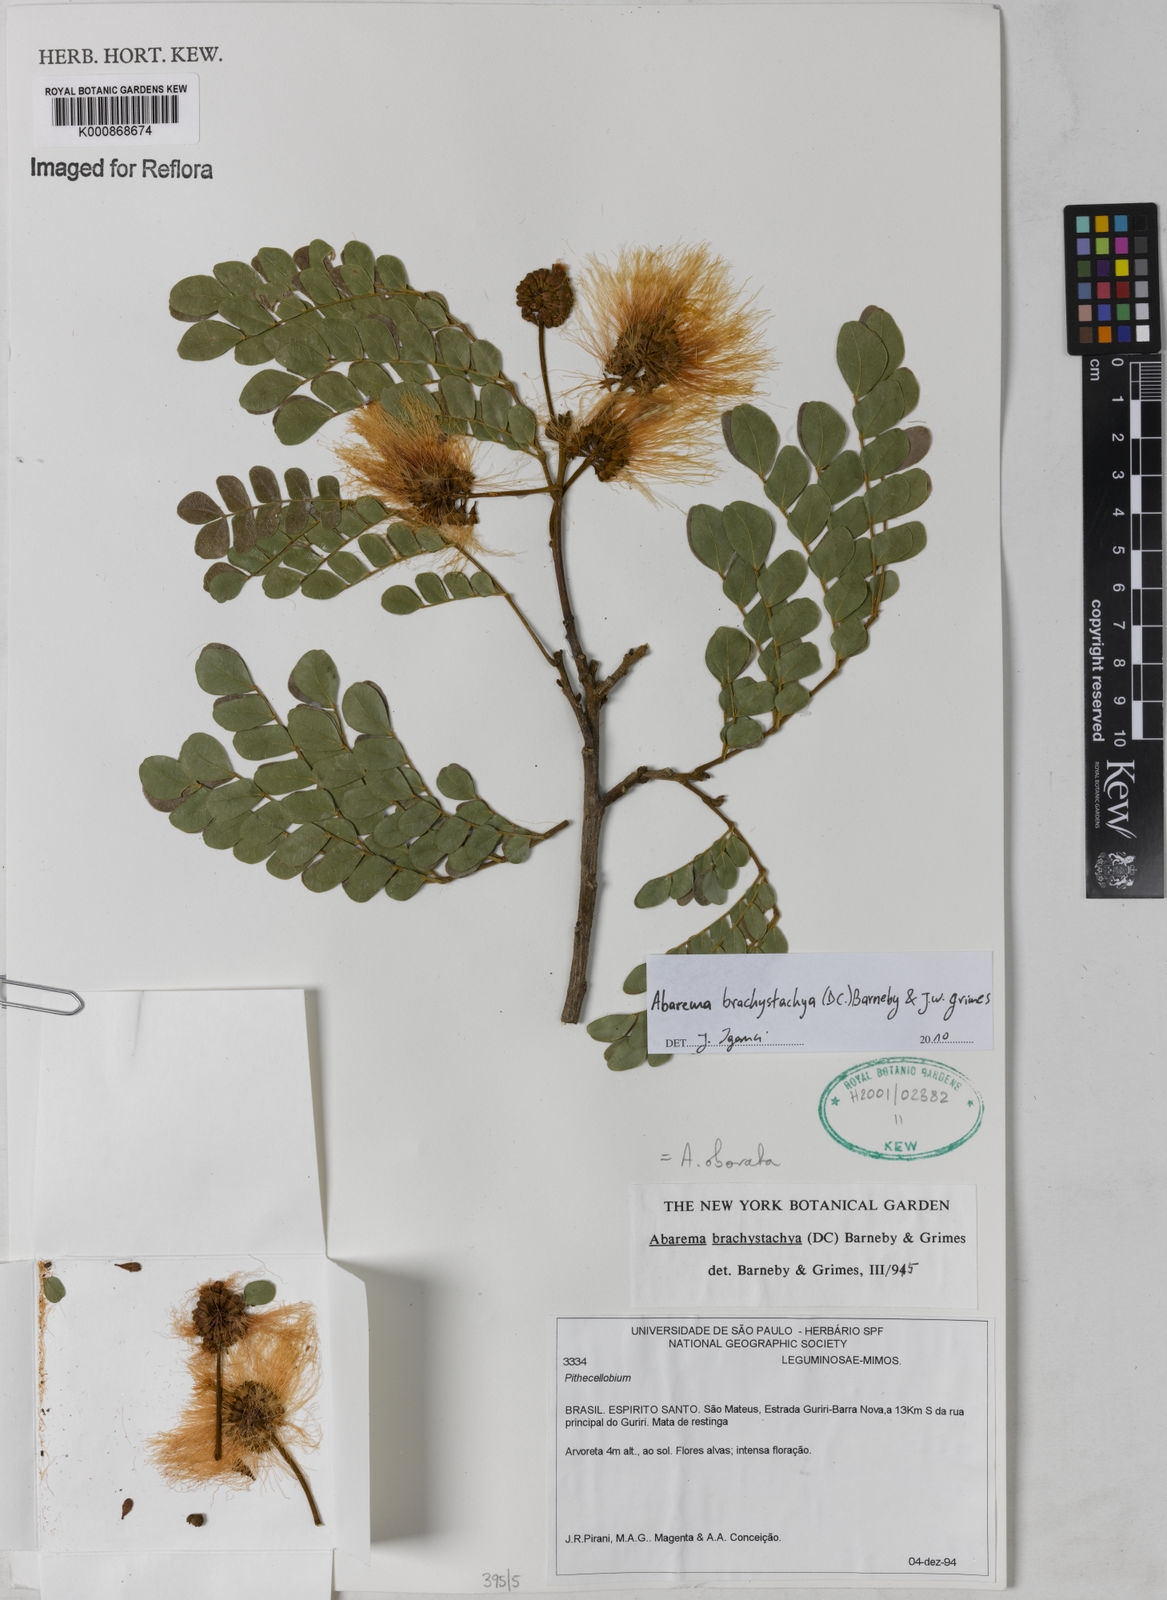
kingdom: Plantae
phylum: Tracheophyta
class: Magnoliopsida
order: Fabales
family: Fabaceae
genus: Abarema
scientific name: Abarema
